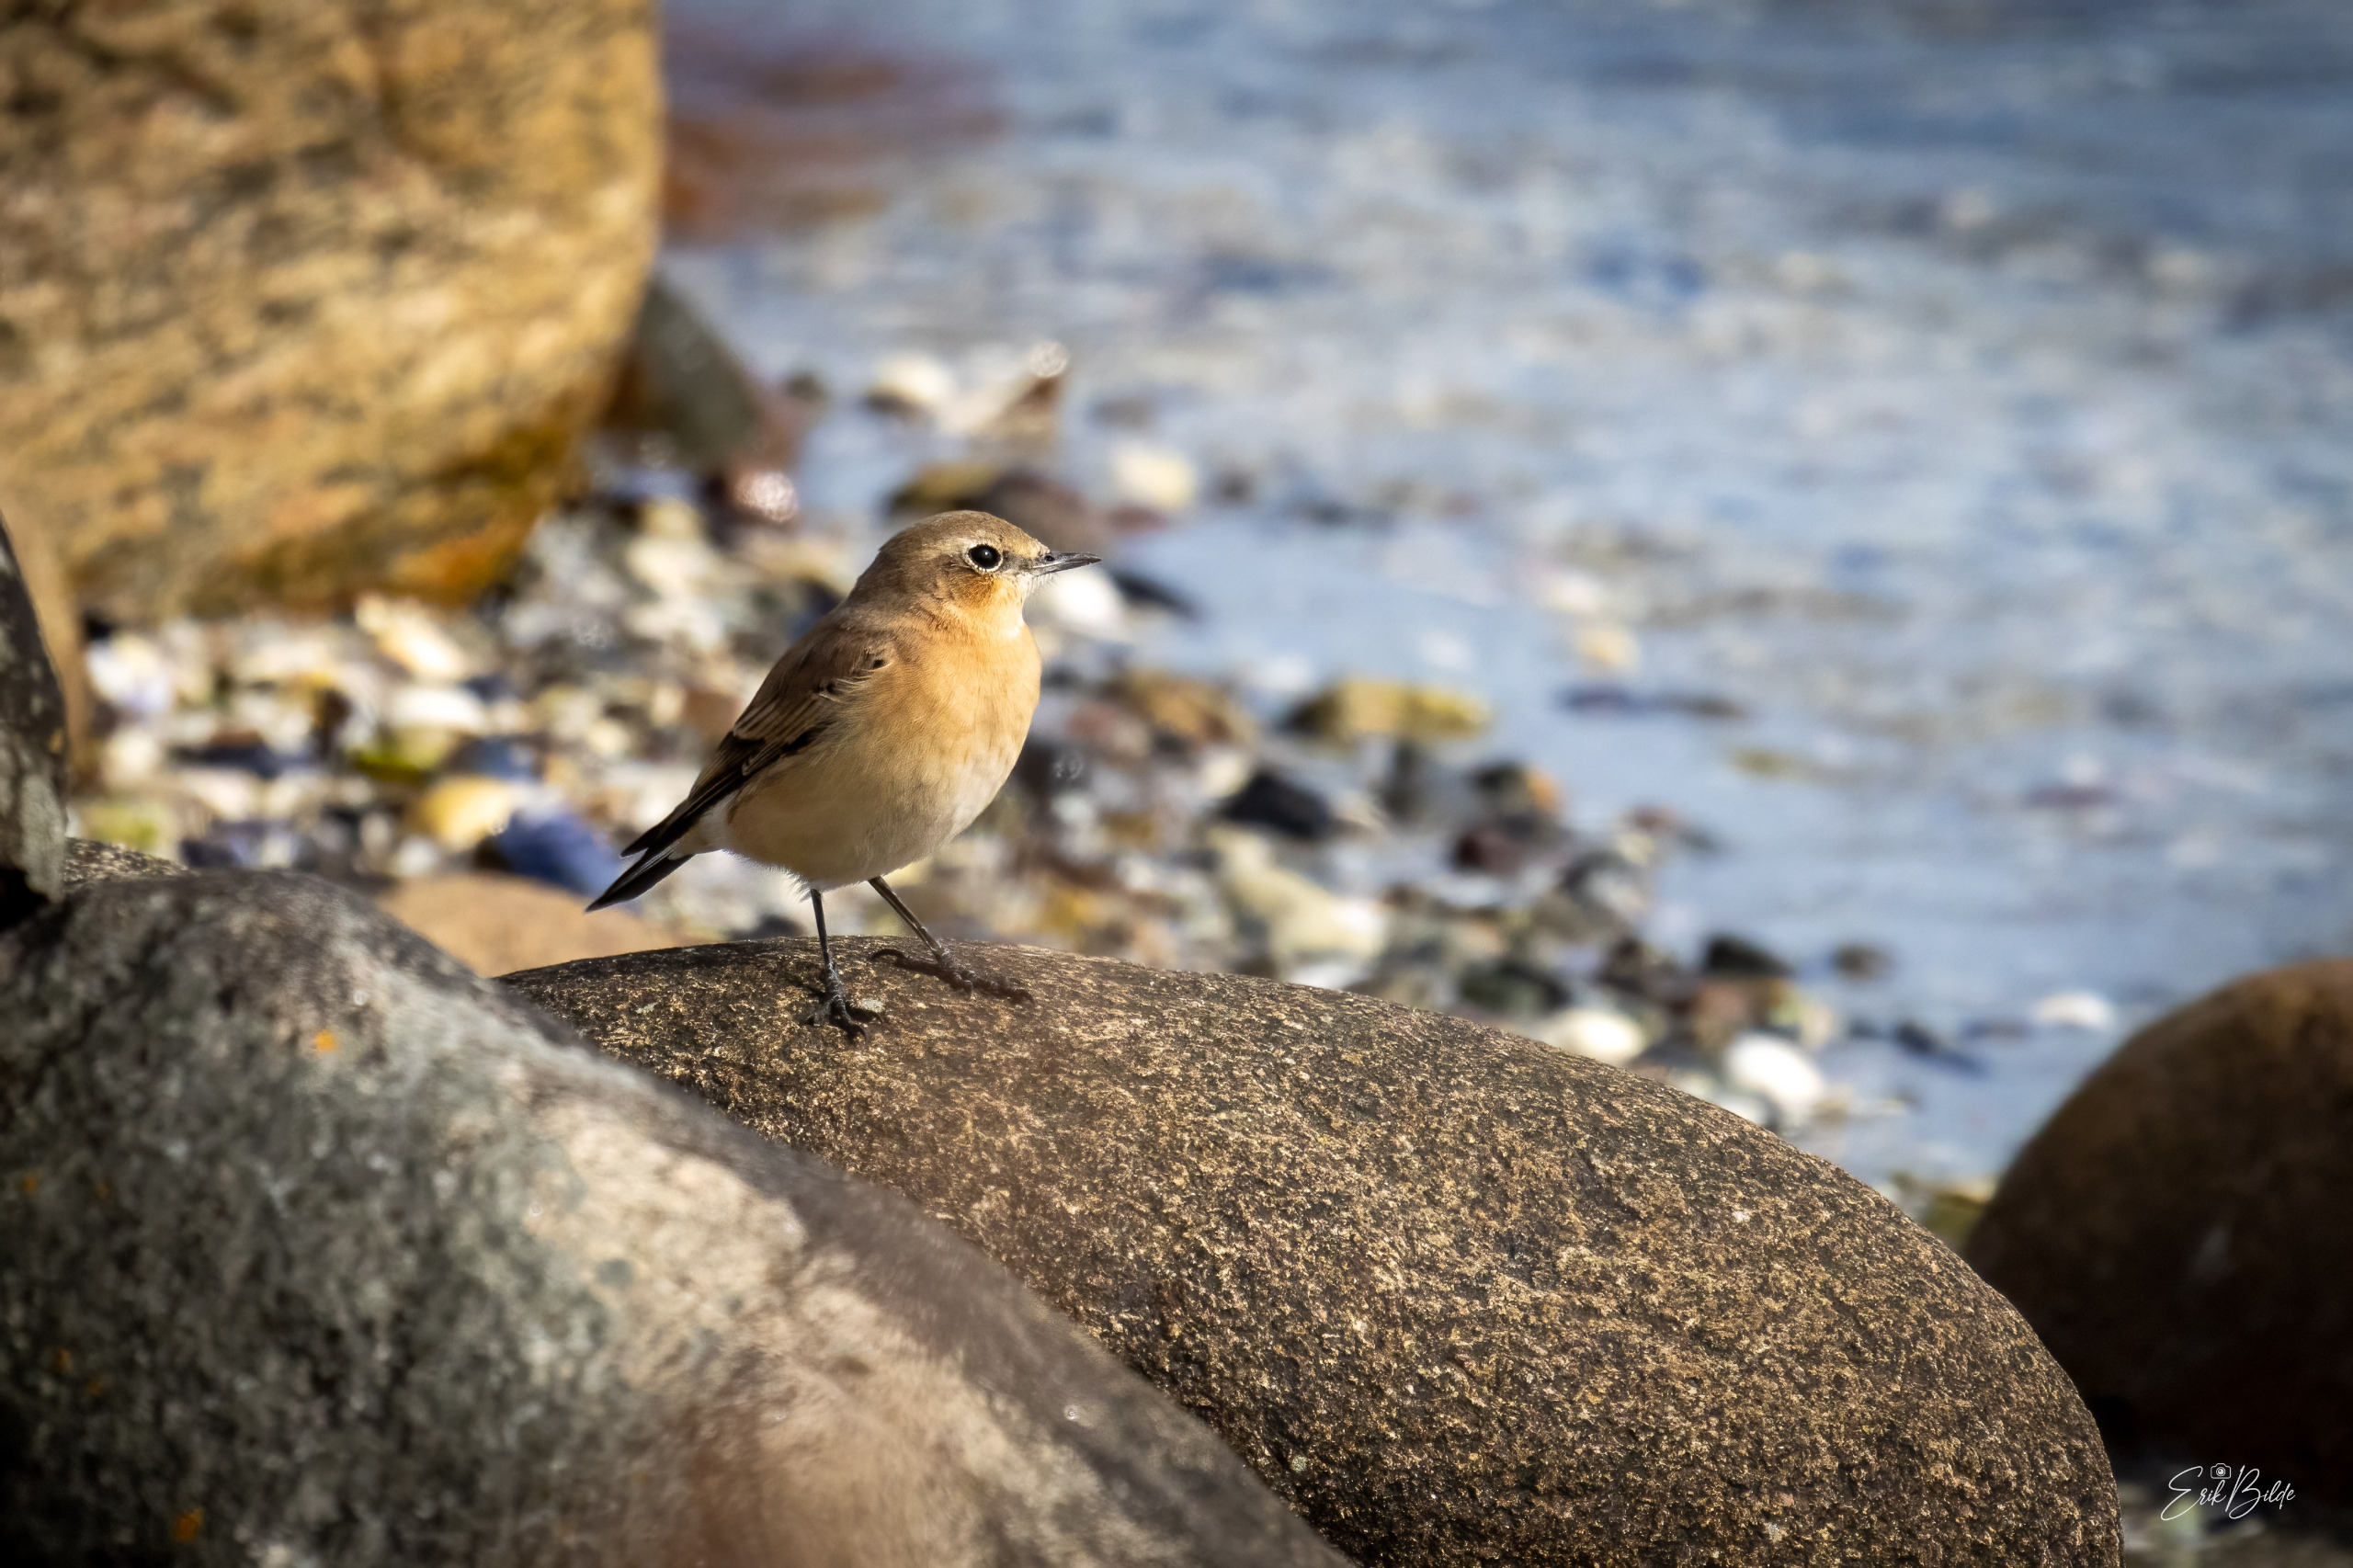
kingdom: Animalia
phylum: Chordata
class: Aves
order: Passeriformes
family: Muscicapidae
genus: Oenanthe
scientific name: Oenanthe oenanthe
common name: Stenpikker
